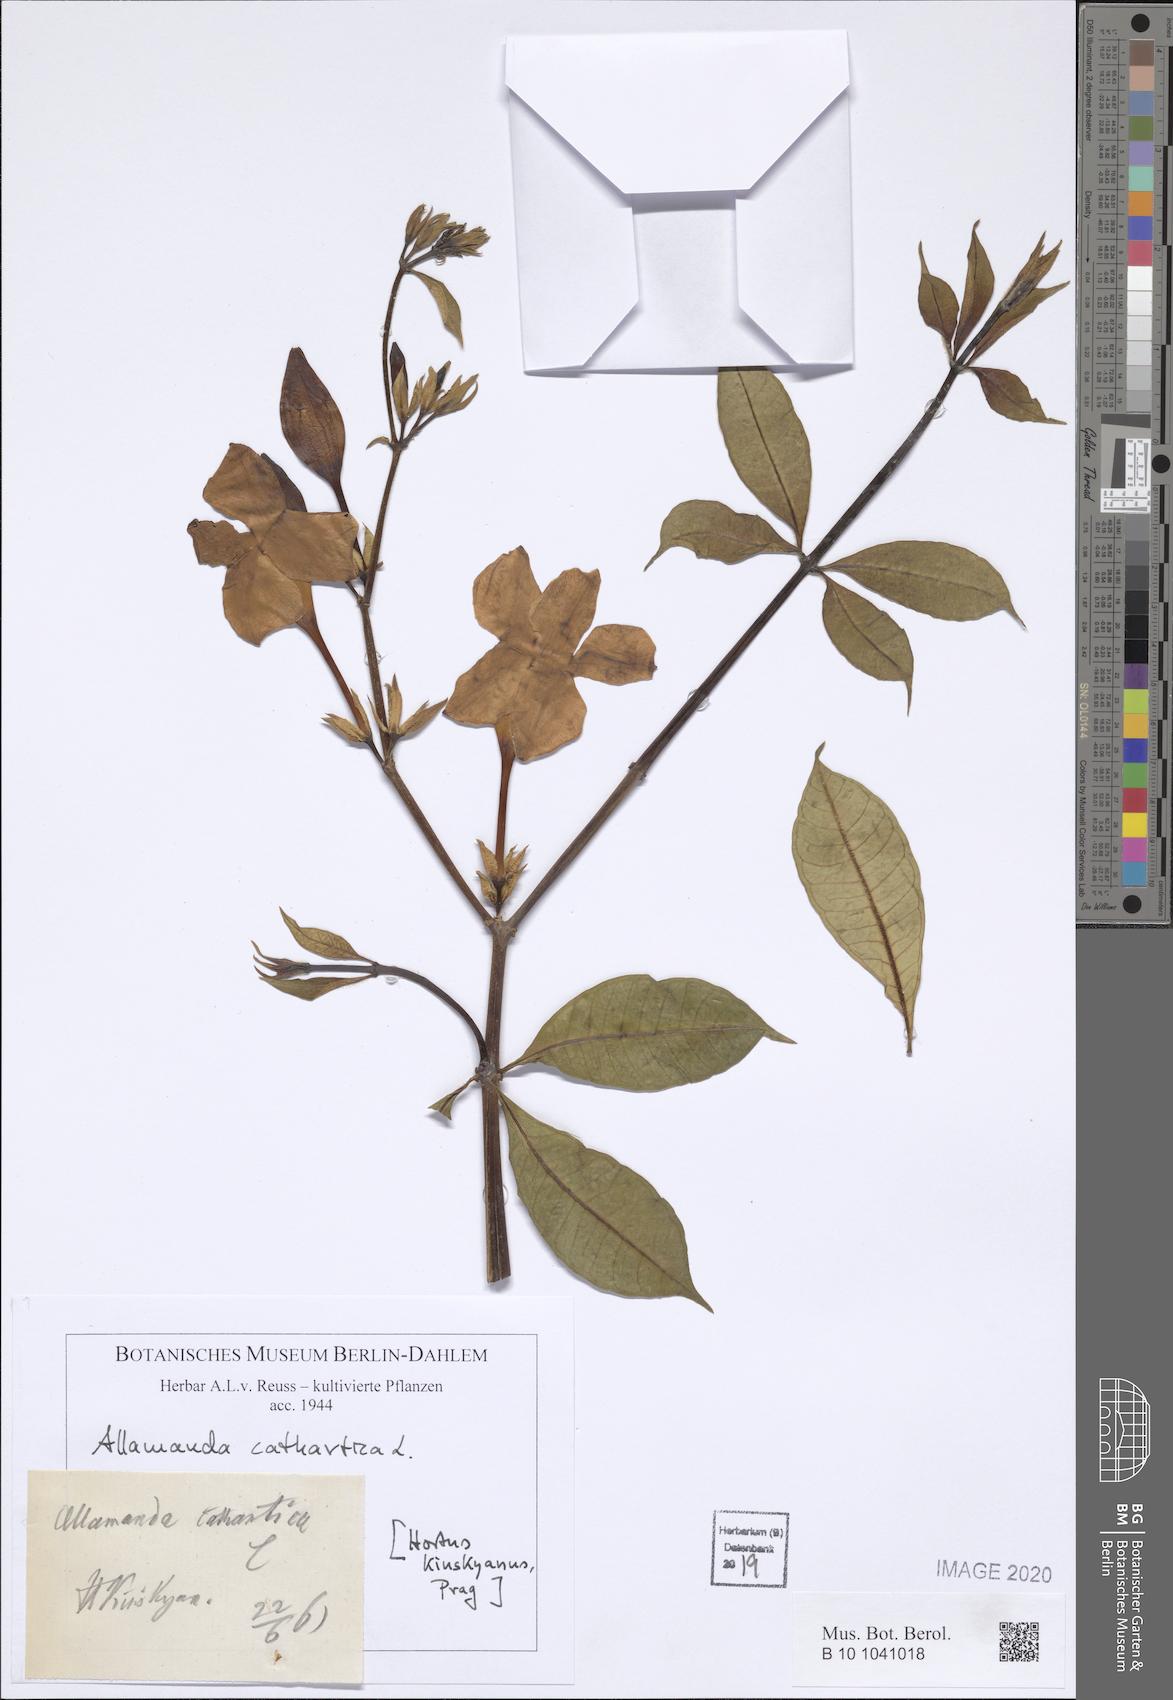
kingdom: Plantae
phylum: Tracheophyta
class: Magnoliopsida
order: Gentianales
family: Apocynaceae
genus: Allamanda
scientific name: Allamanda cathartica
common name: Golden trumpet
